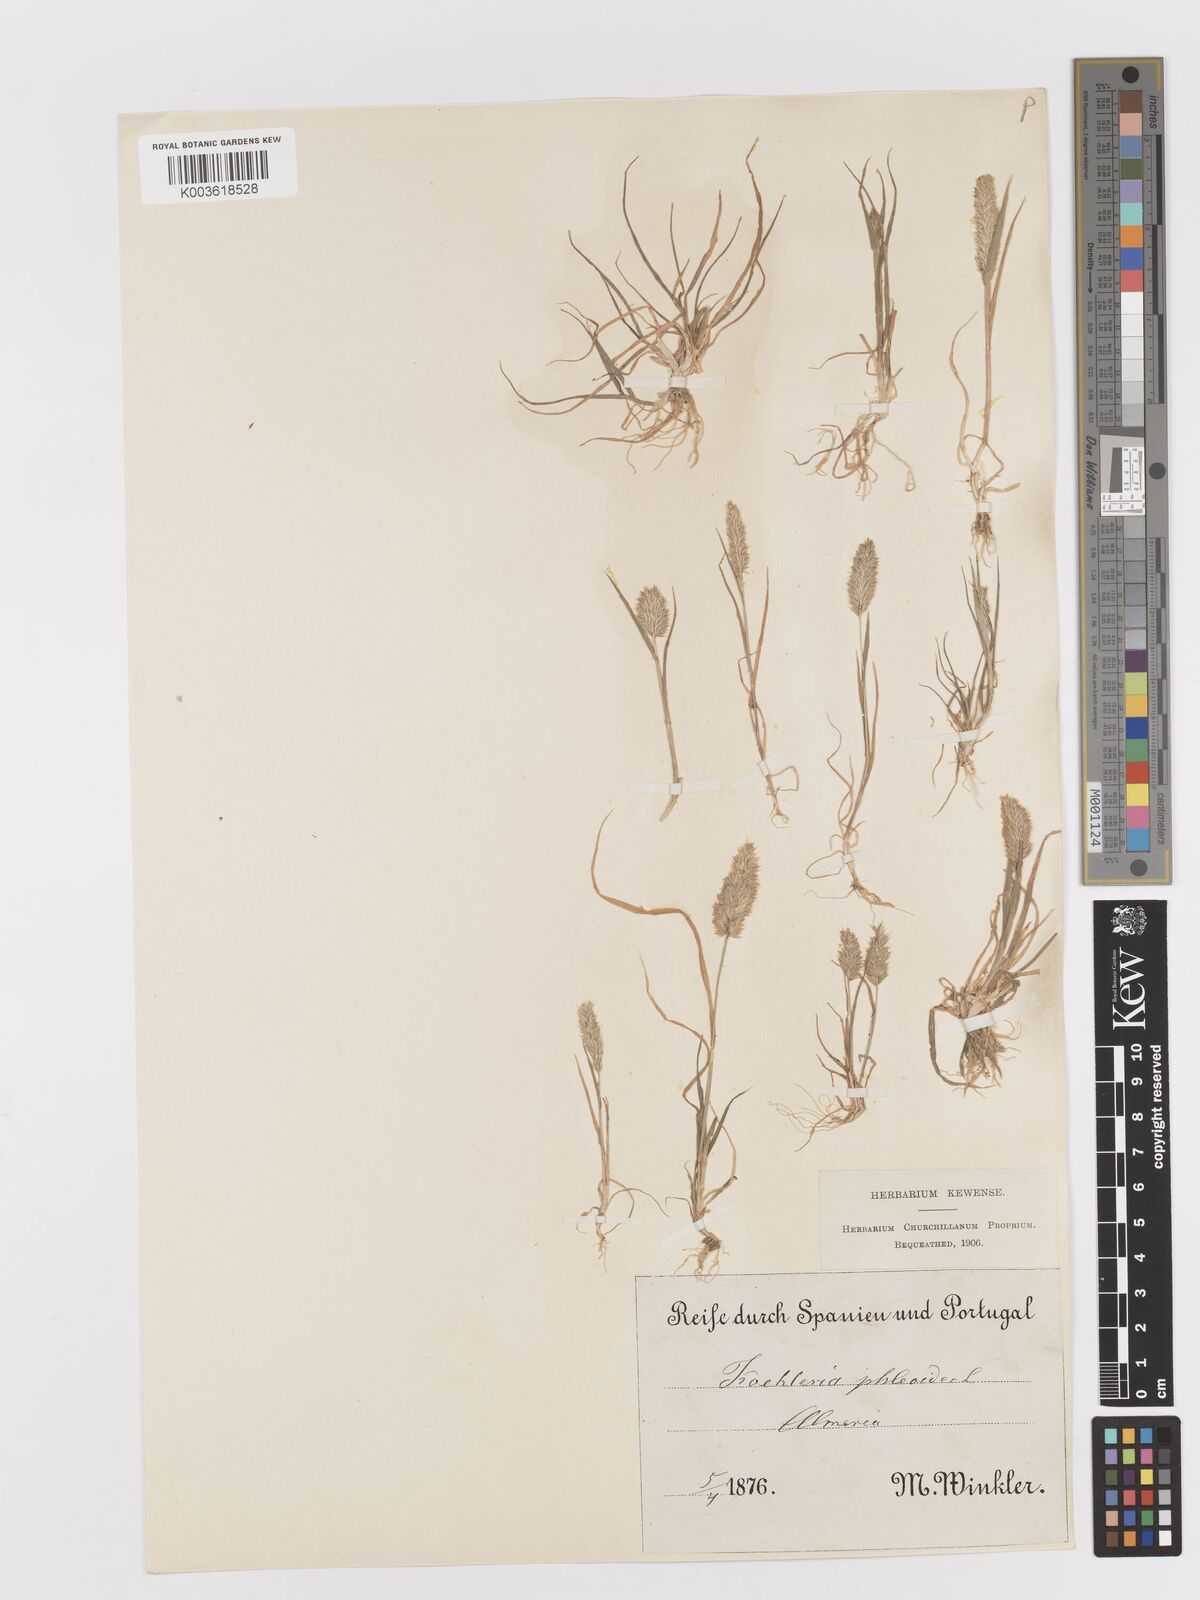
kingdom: Plantae
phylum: Tracheophyta
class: Liliopsida
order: Poales
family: Poaceae
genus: Rostraria
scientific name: Rostraria cristata
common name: Mediterranean hair-grass
